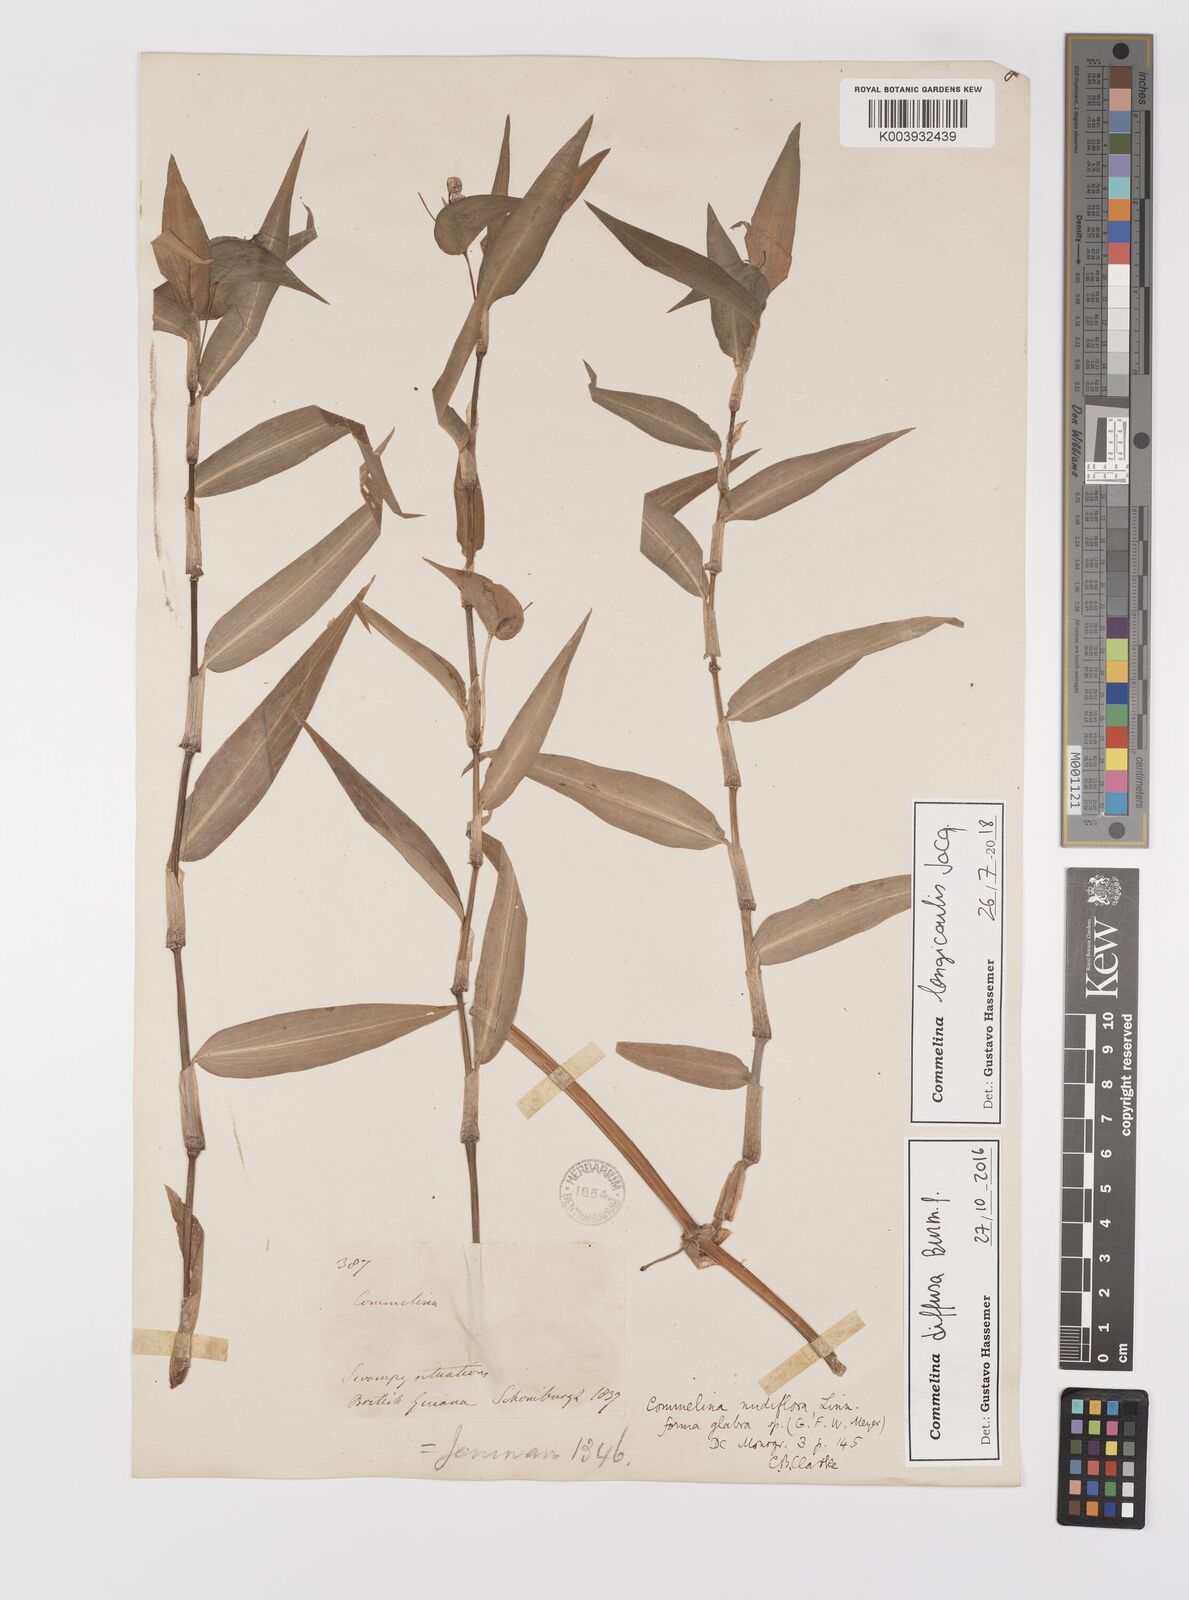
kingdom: Plantae
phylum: Tracheophyta
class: Liliopsida
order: Commelinales
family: Commelinaceae
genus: Commelina
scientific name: Commelina diffusa
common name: Climbing dayflower
